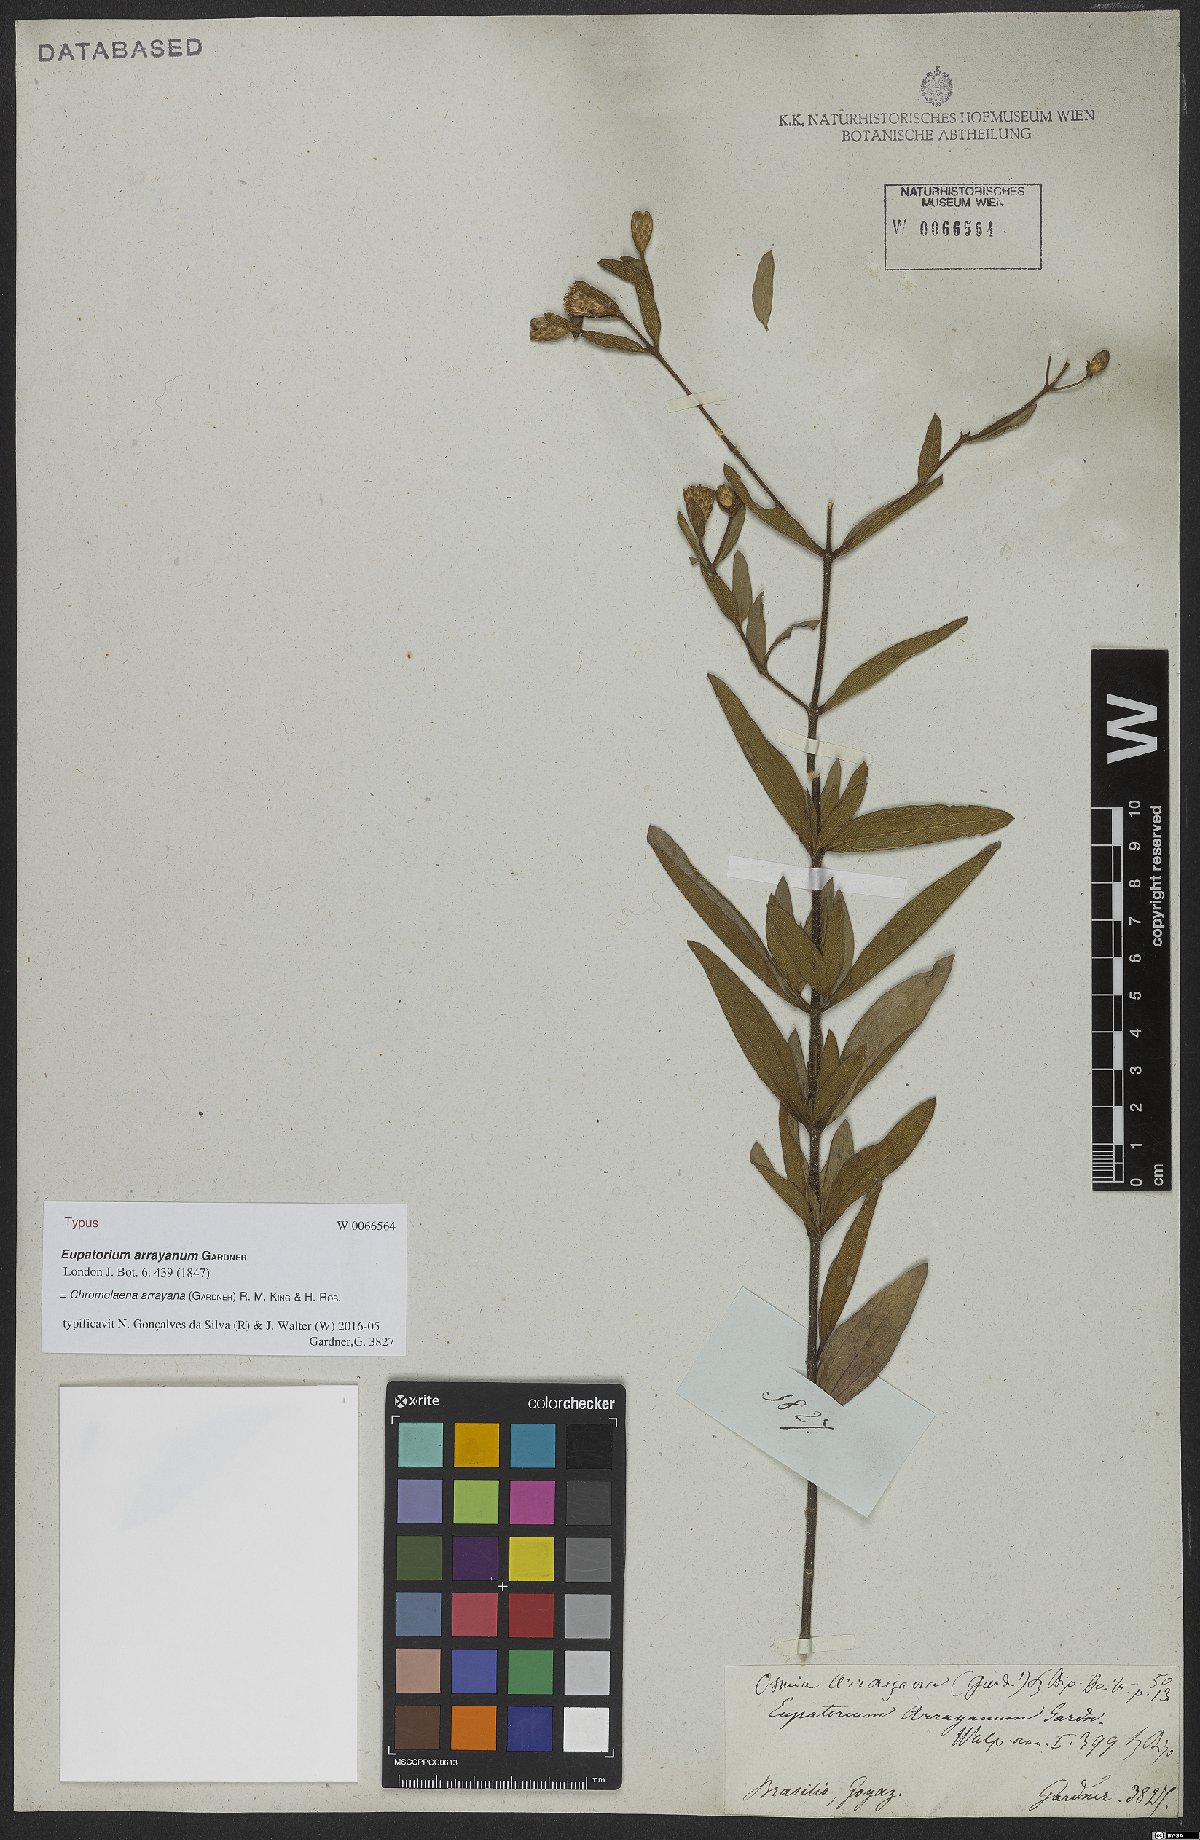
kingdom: Plantae
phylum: Tracheophyta
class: Magnoliopsida
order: Asterales
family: Asteraceae
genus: Chromolaena
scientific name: Chromolaena arrayana
